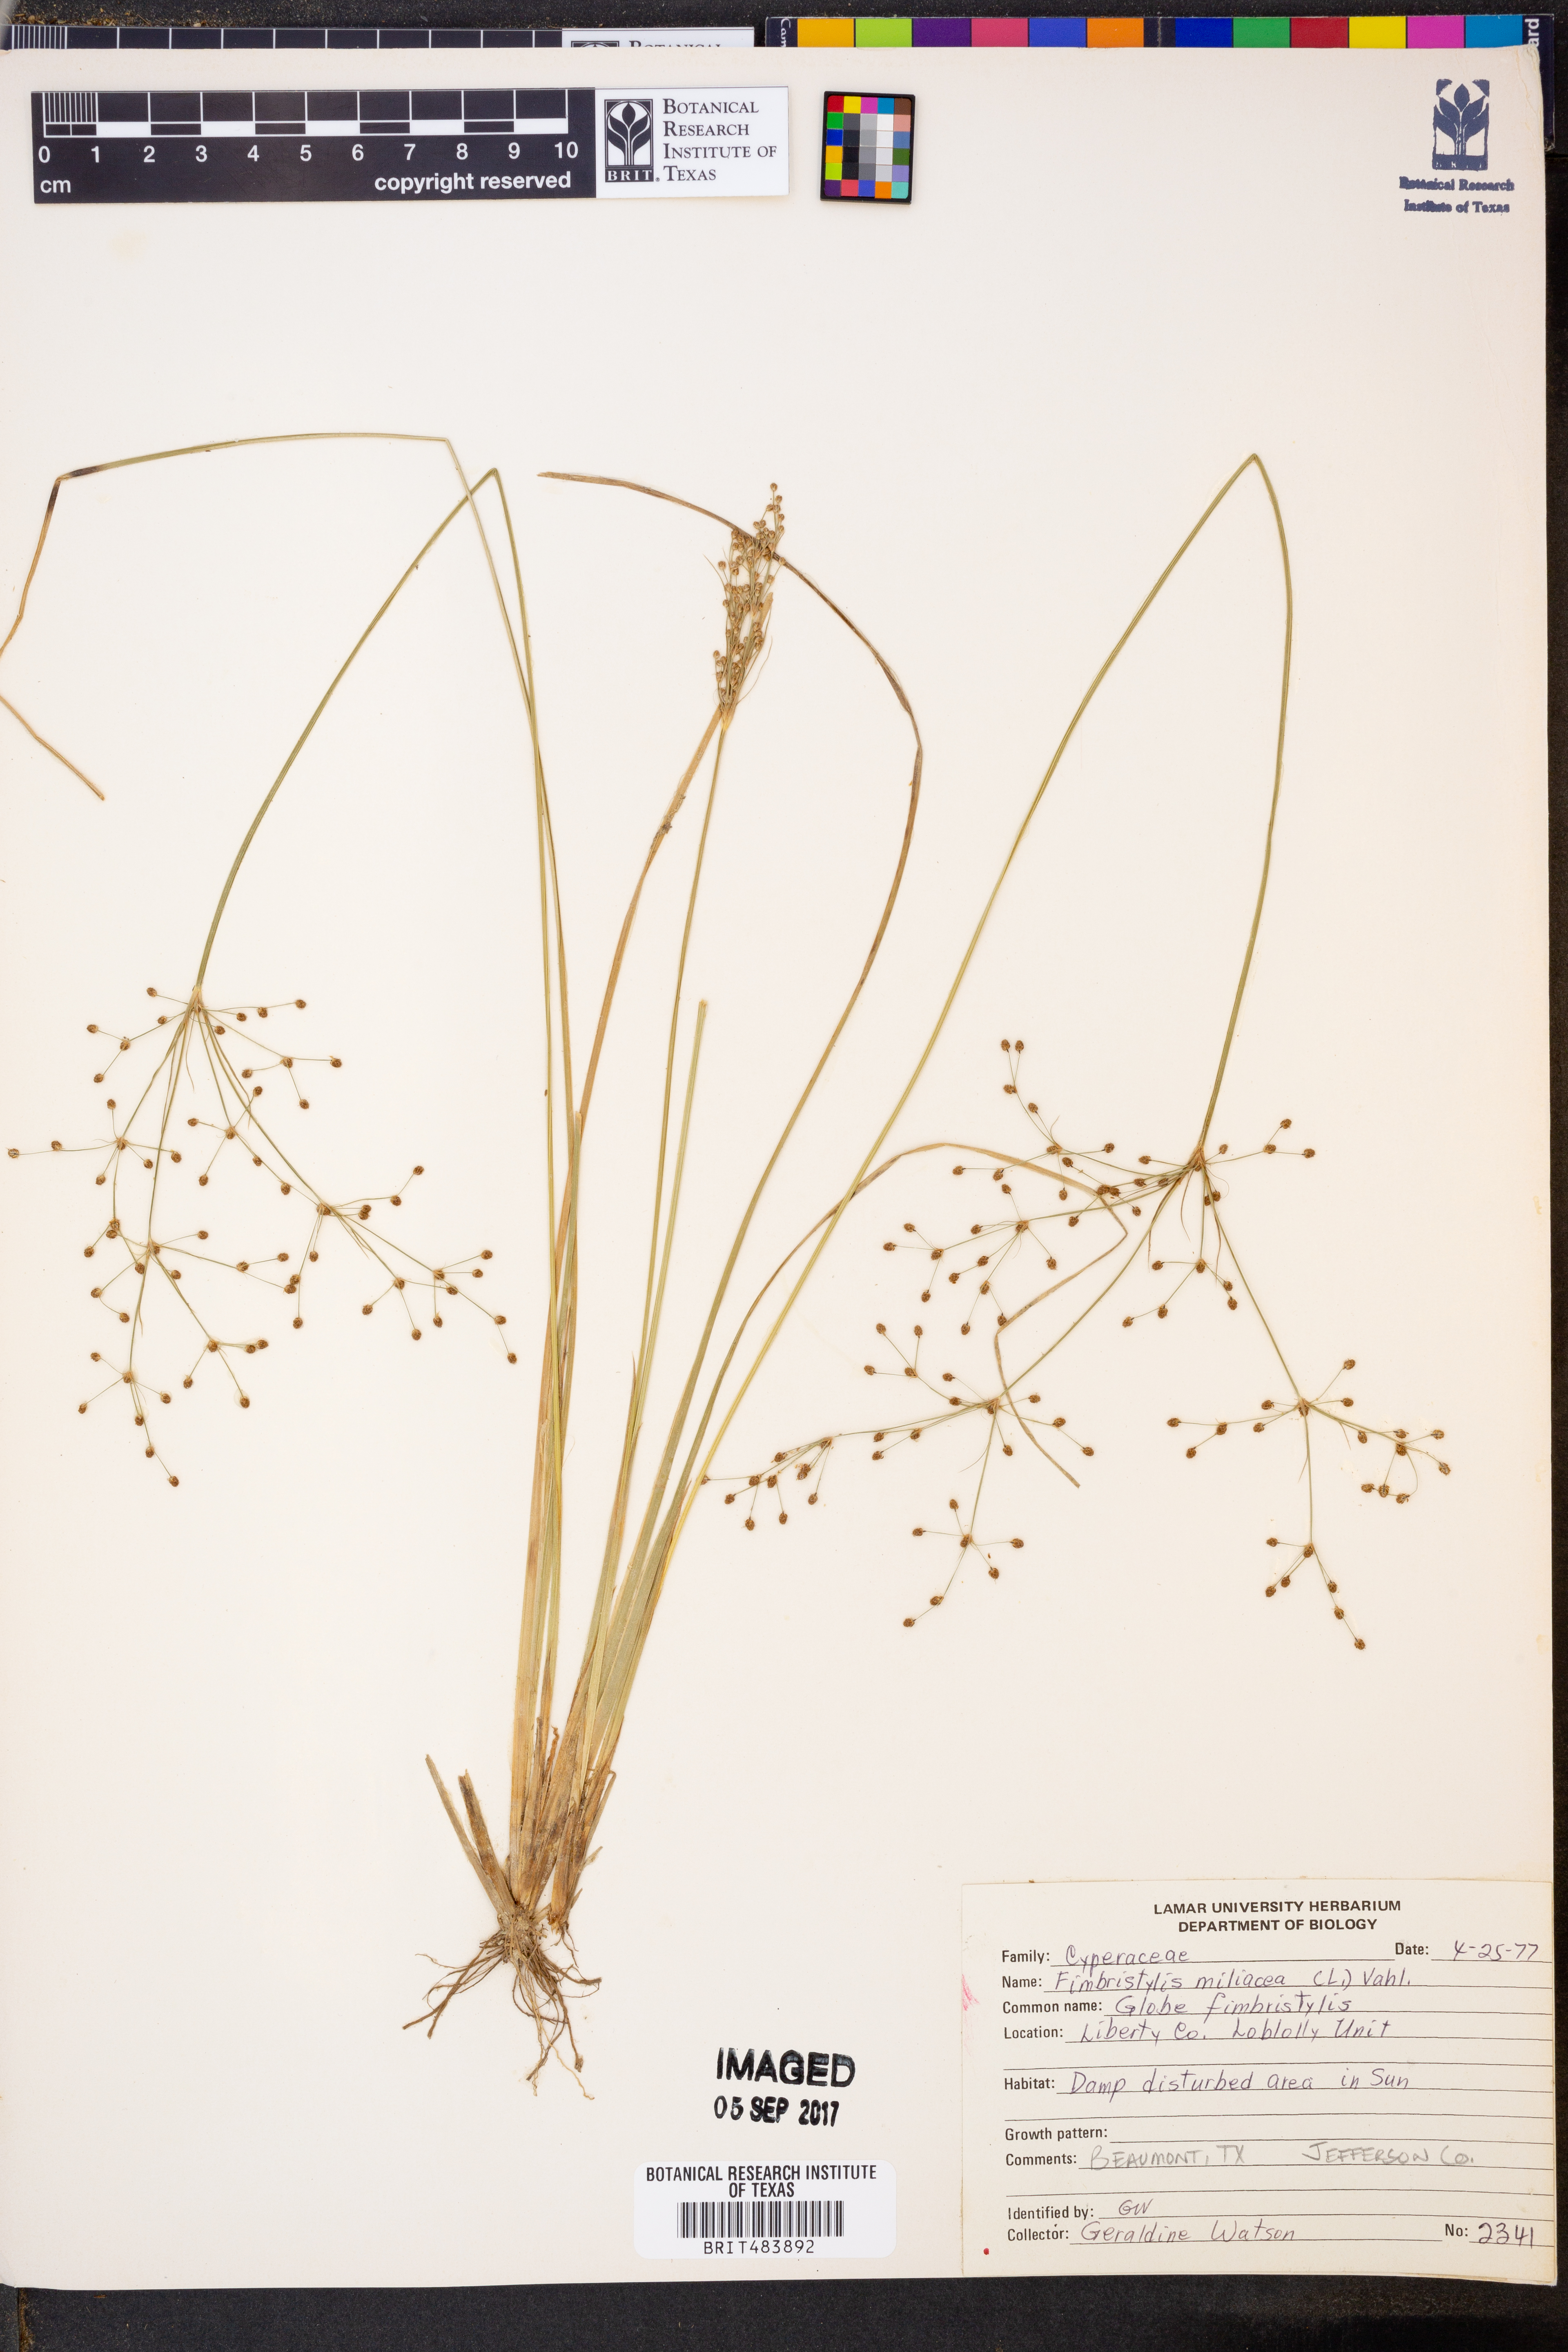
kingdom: Plantae
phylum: Tracheophyta
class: Liliopsida
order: Poales
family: Cyperaceae
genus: Fimbristylis
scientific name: Fimbristylis quinquangularis
